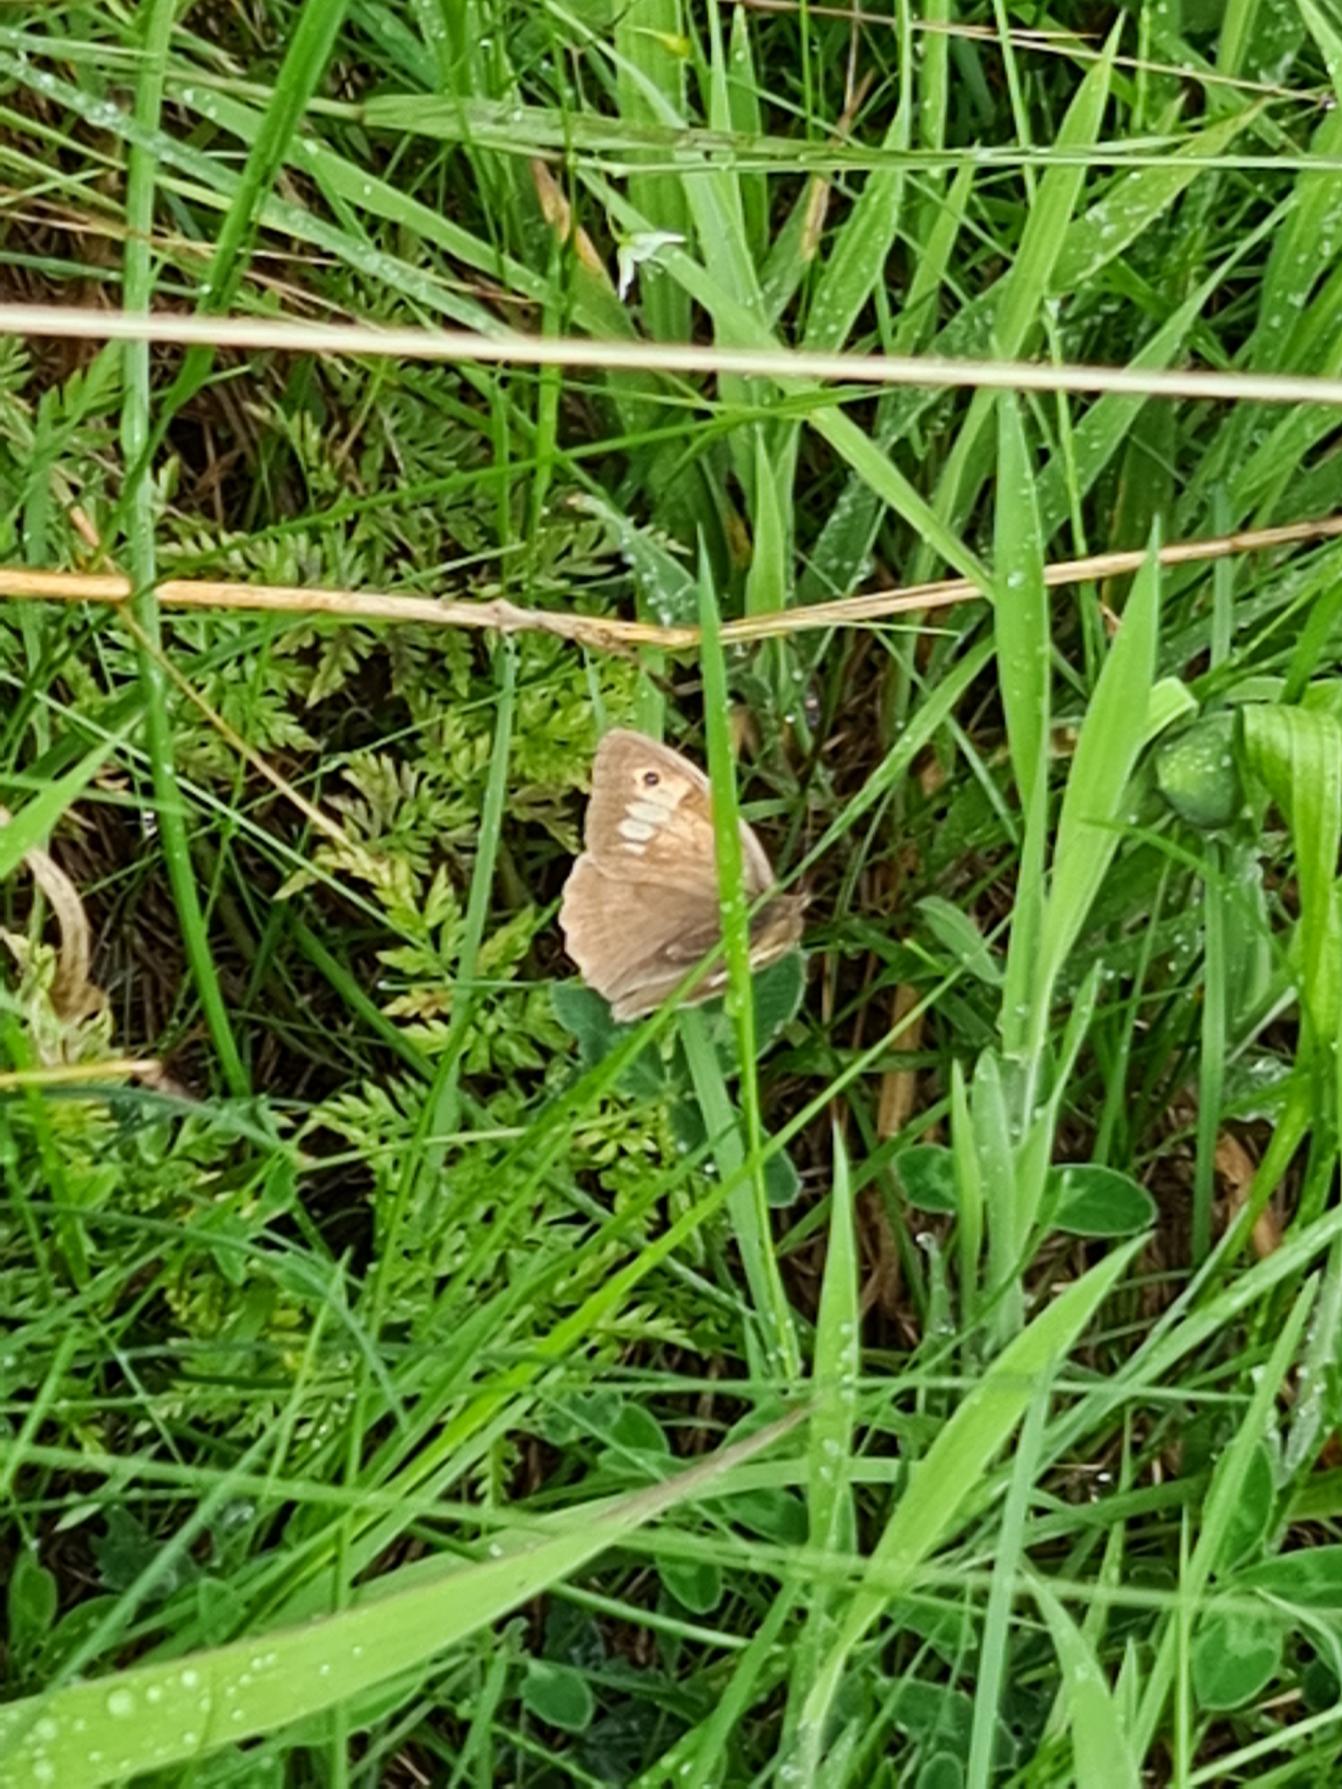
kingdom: Animalia
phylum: Arthropoda
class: Insecta
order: Lepidoptera
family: Nymphalidae
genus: Maniola
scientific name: Maniola jurtina
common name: Græsrandøje
